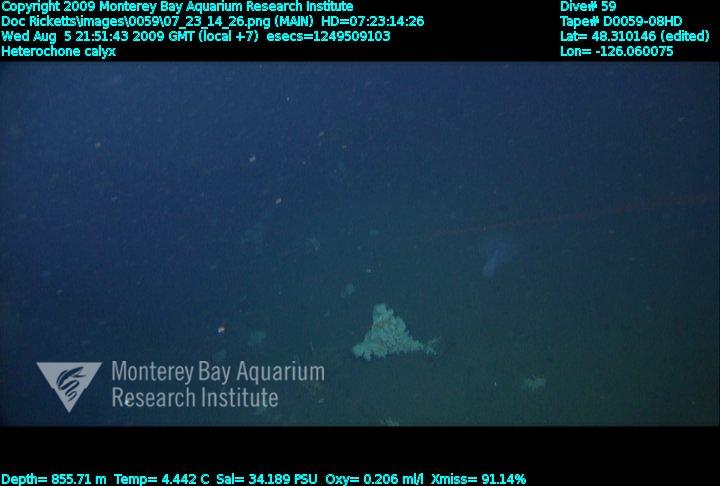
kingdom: Animalia
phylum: Porifera
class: Hexactinellida
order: Sceptrulophora
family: Aphrocallistidae
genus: Heterochone
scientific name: Heterochone calyx
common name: Fingered goblet glass sponge
